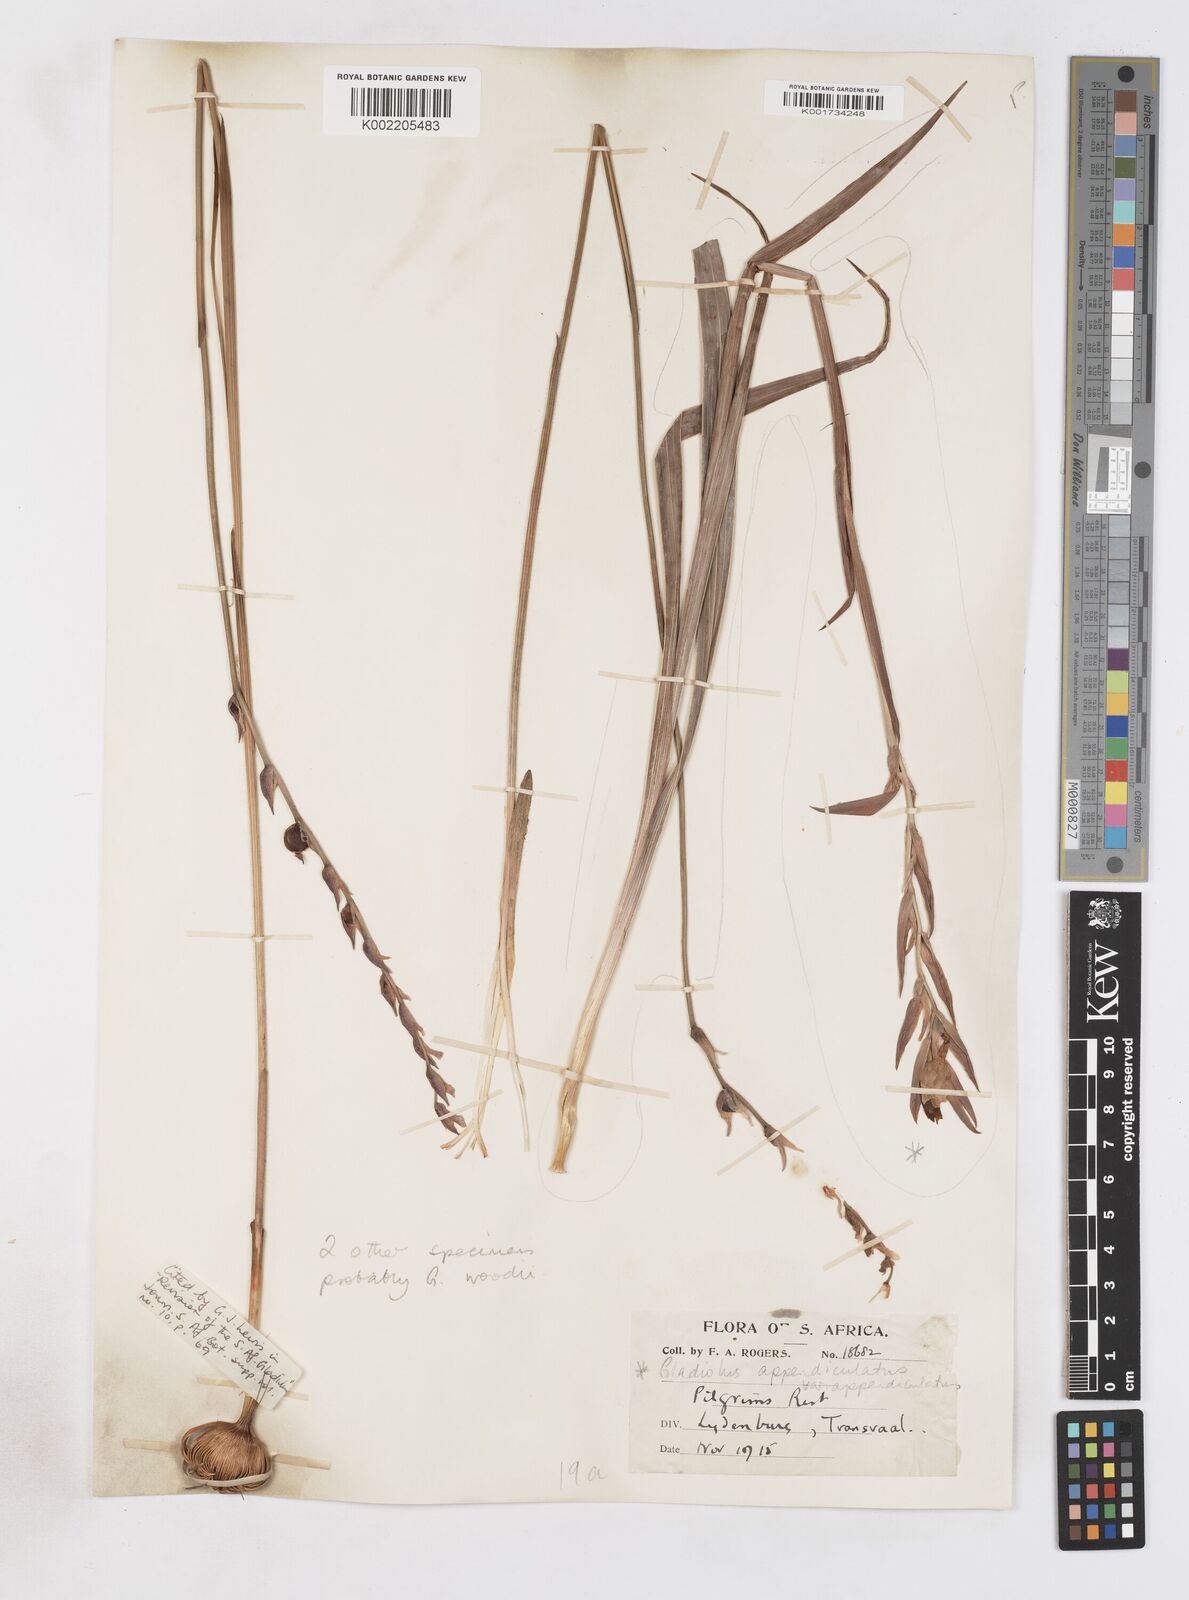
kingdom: Plantae
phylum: Tracheophyta
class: Liliopsida
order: Asparagales
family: Iridaceae
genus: Gladiolus
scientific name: Gladiolus appendiculatus
